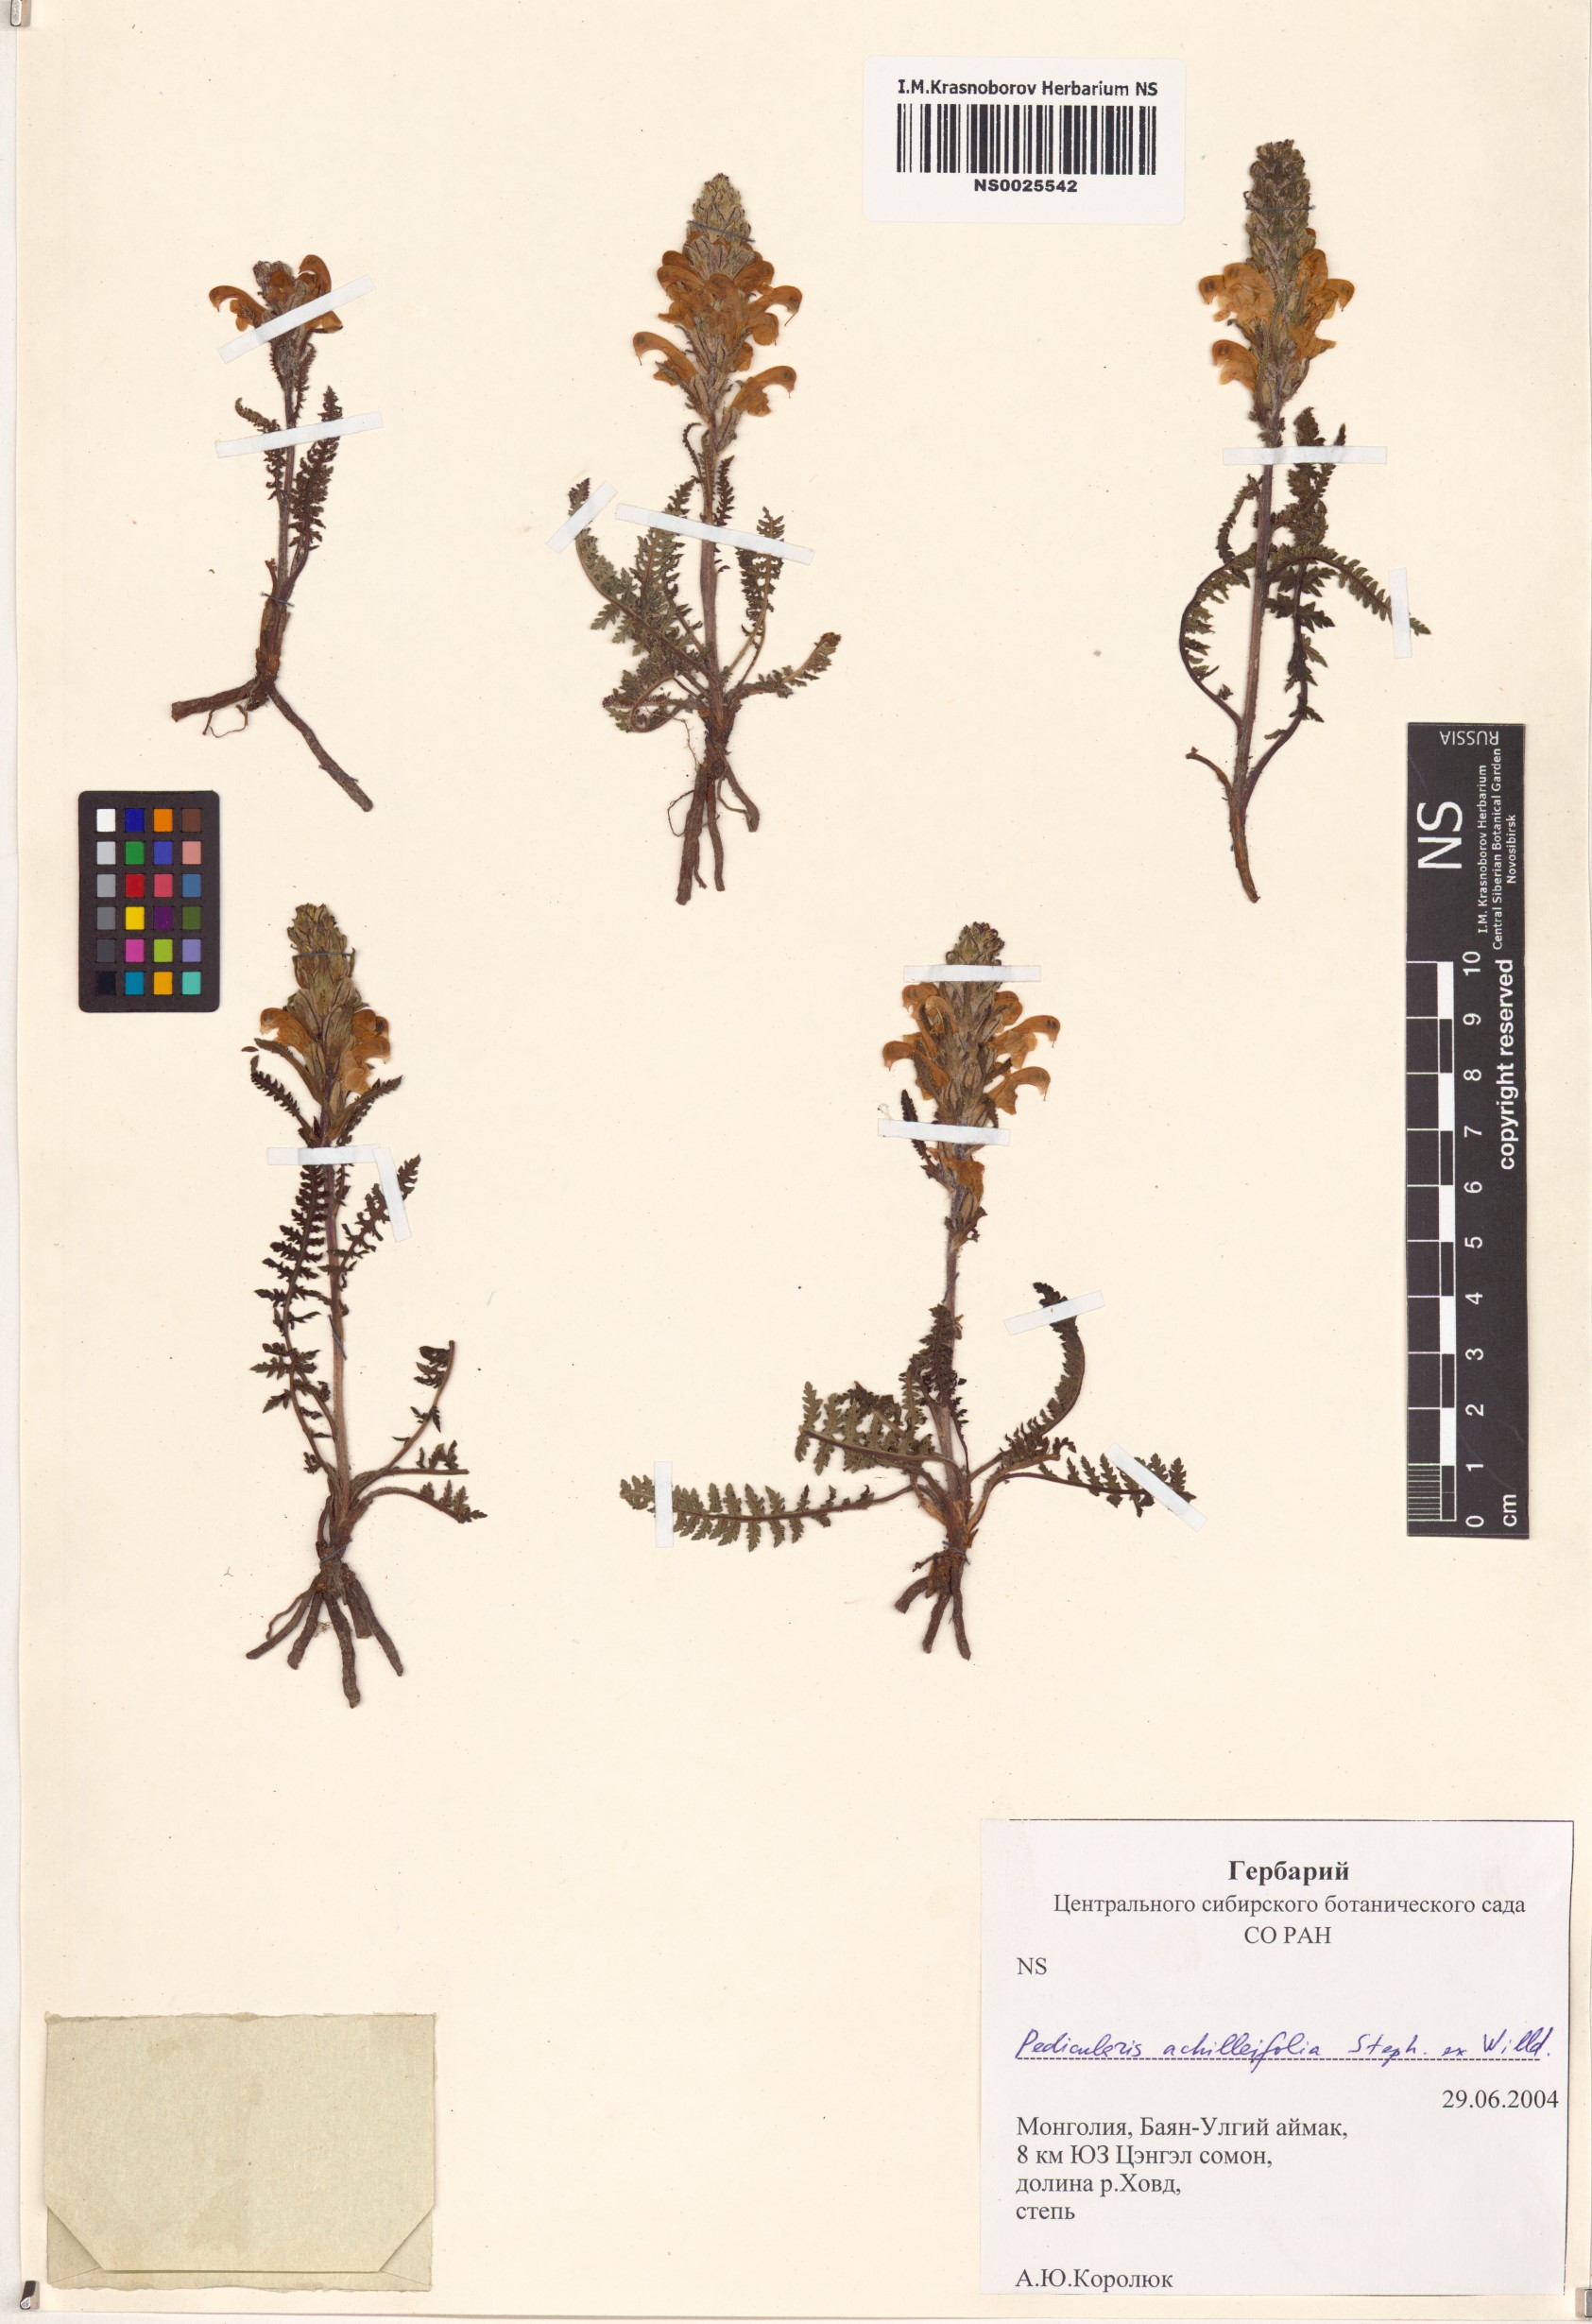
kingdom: Plantae
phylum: Tracheophyta
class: Magnoliopsida
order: Lamiales
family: Orobanchaceae
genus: Pedicularis
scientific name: Pedicularis achilleifolia
